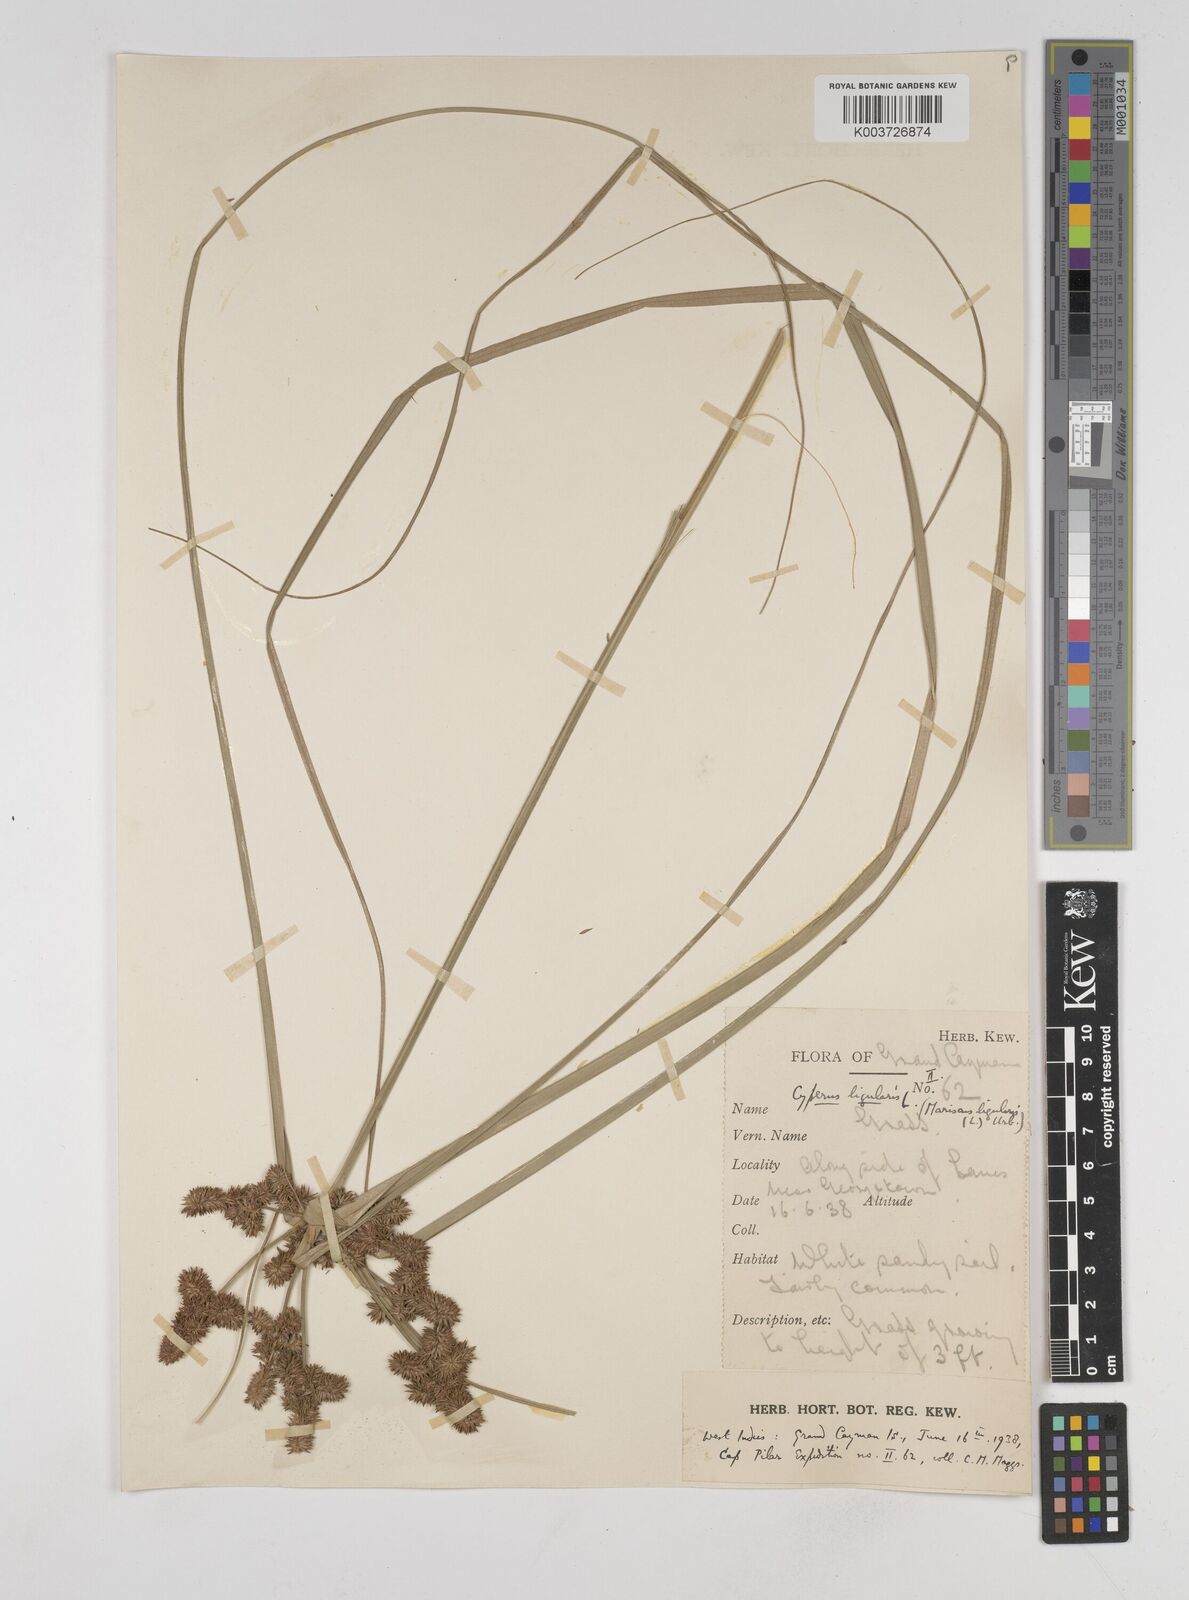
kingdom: Plantae
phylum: Tracheophyta
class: Liliopsida
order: Poales
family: Cyperaceae
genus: Cyperus
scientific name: Cyperus ligularis
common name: Swamp flat sedge
